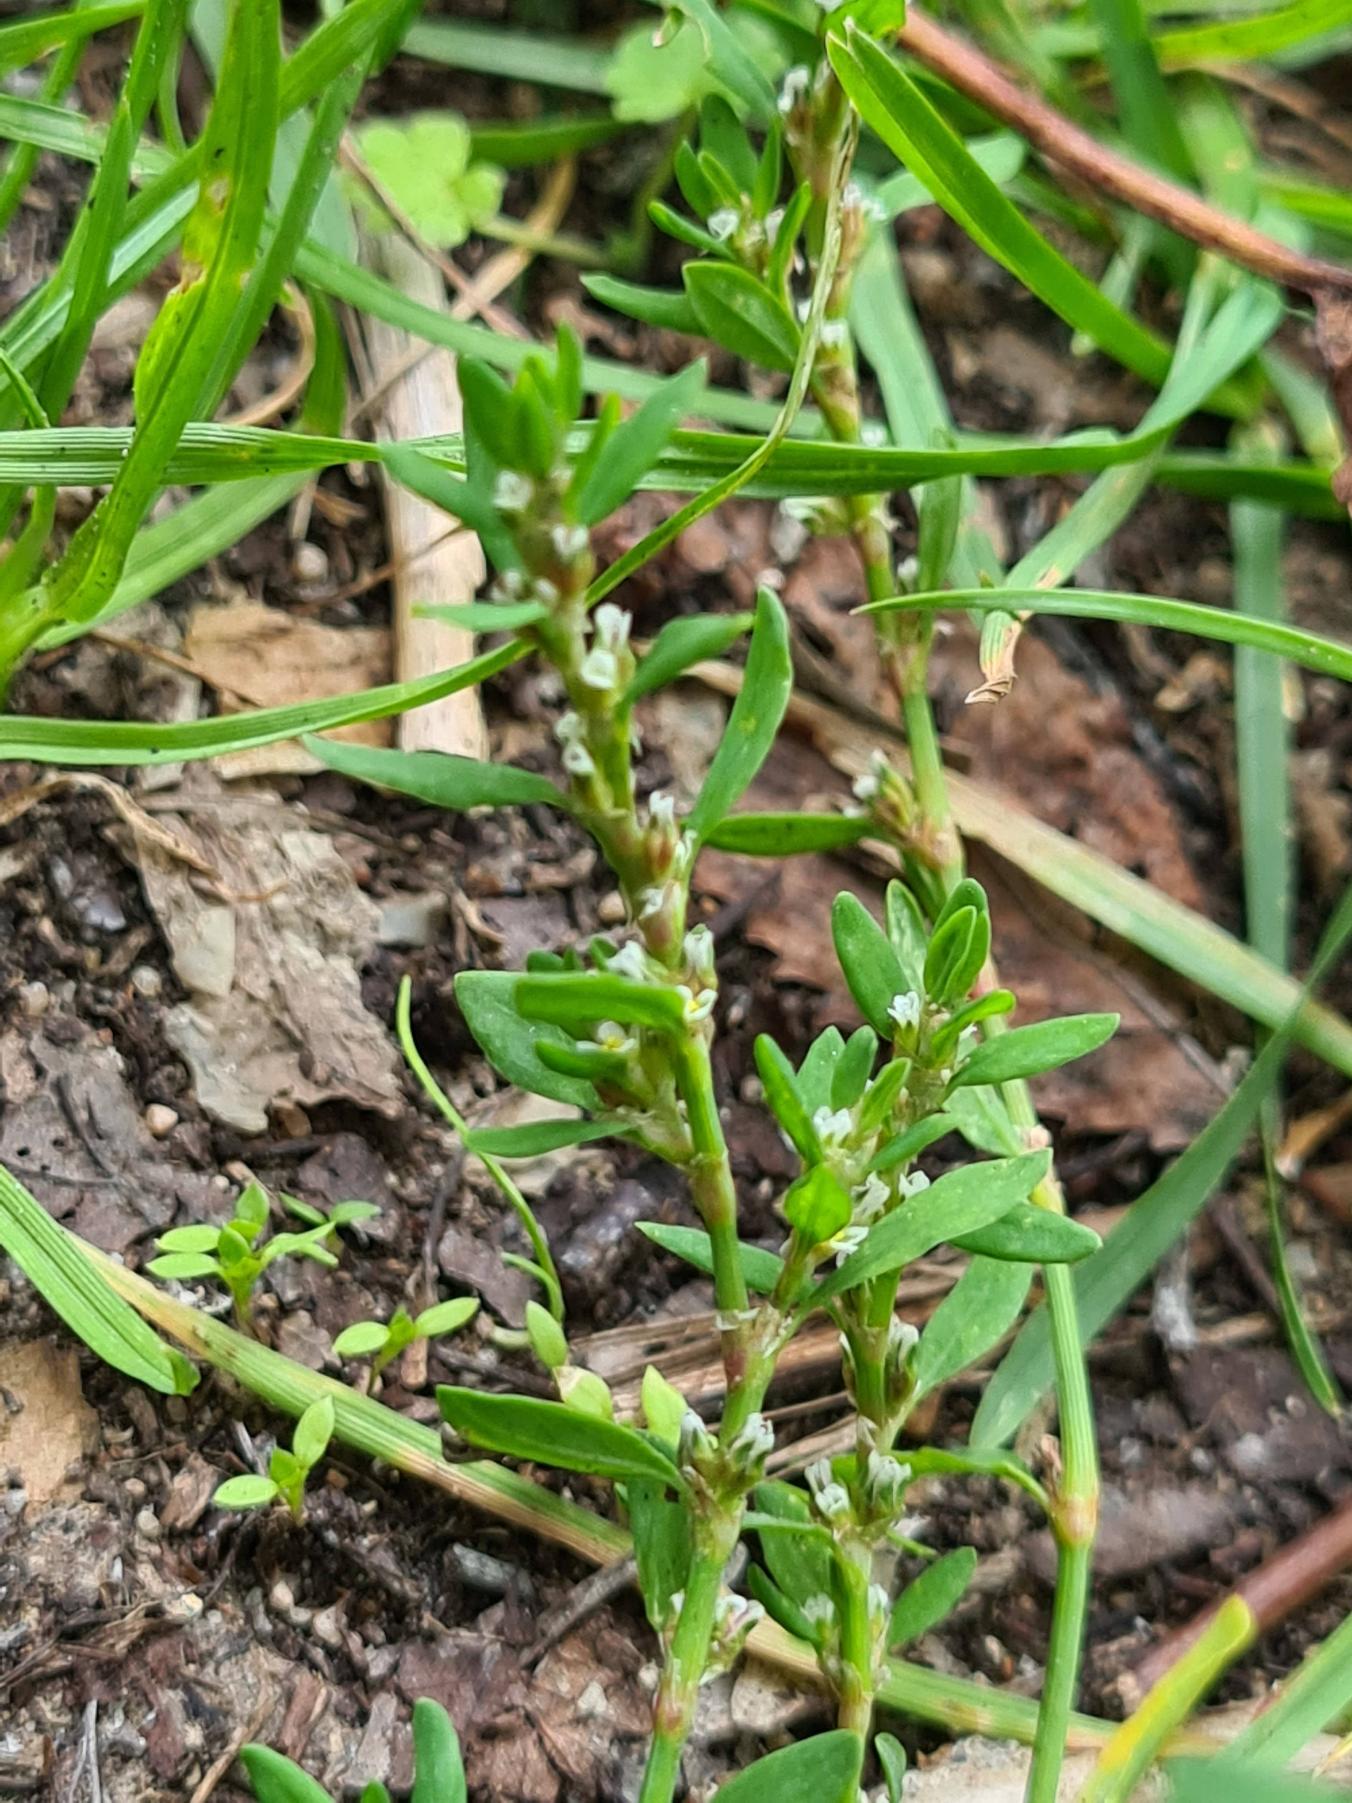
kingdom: Plantae
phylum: Tracheophyta
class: Magnoliopsida
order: Caryophyllales
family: Polygonaceae
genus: Polygonum
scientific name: Polygonum aviculare
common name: Vej-pileurt
